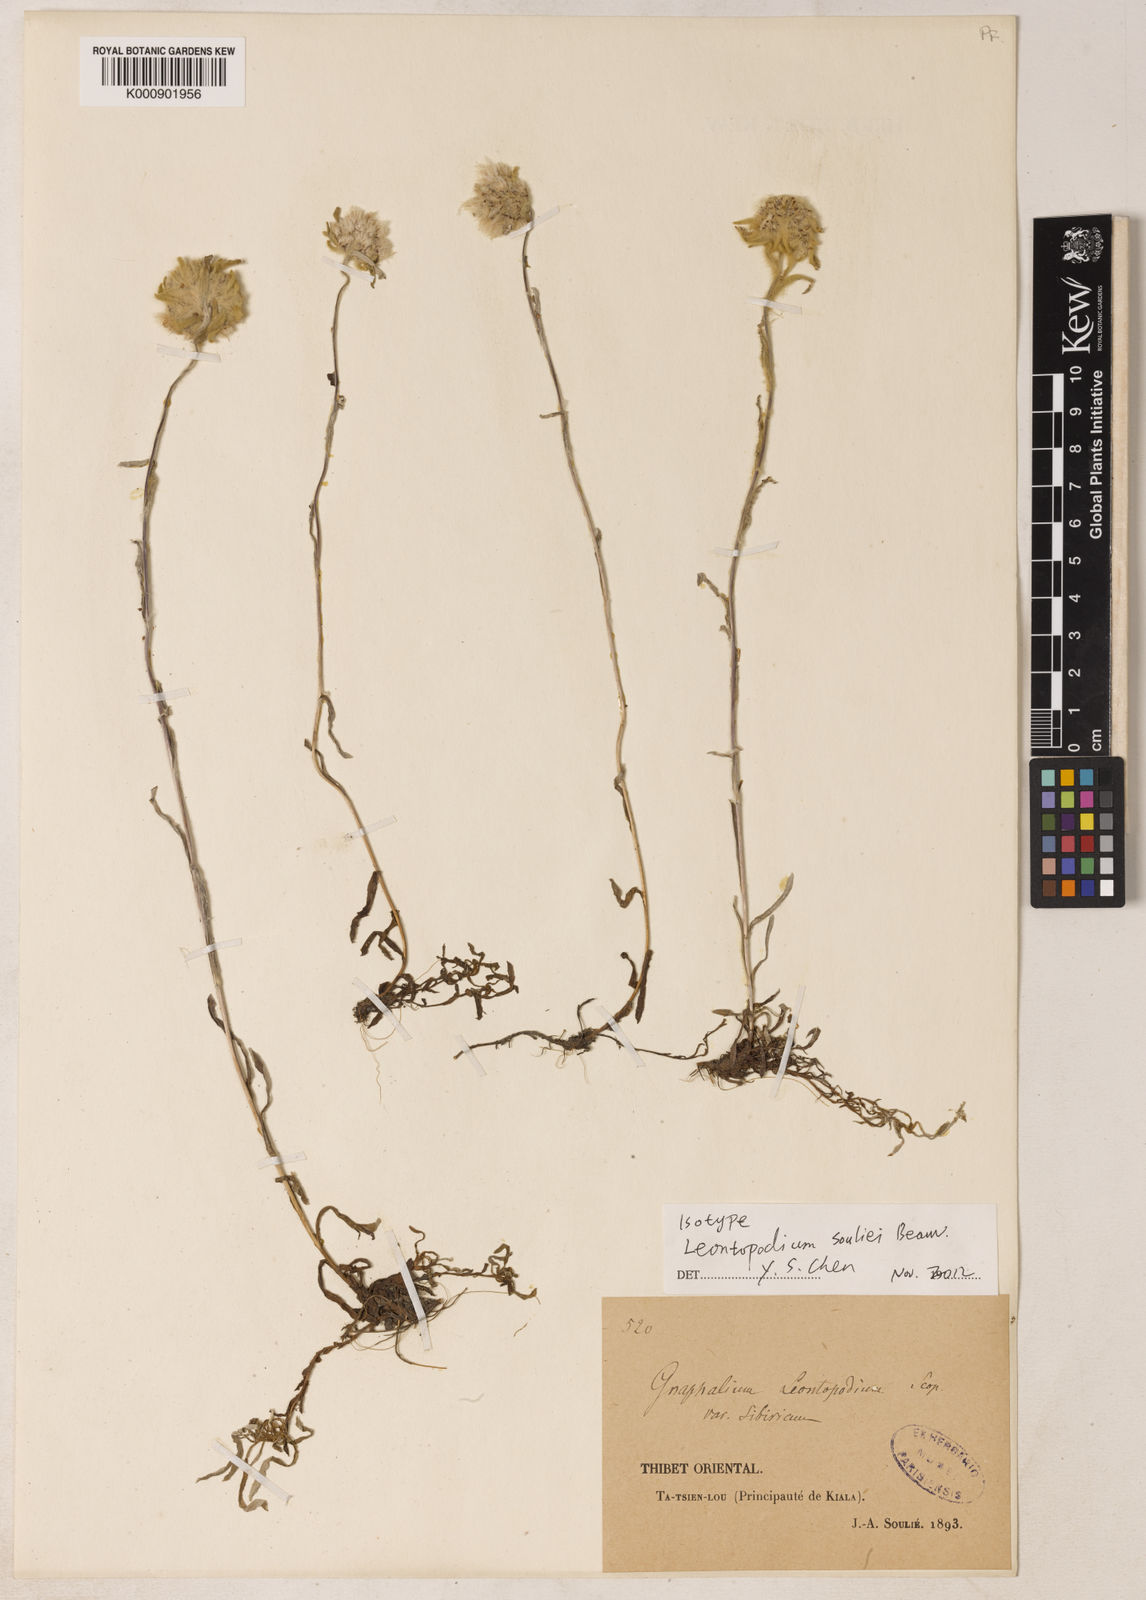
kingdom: Plantae
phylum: Tracheophyta
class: Magnoliopsida
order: Asterales
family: Asteraceae
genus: Leontopodium
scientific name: Leontopodium souliei
